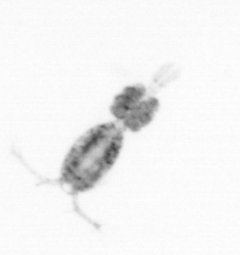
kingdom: Animalia
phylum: Arthropoda
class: Copepoda
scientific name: Copepoda
